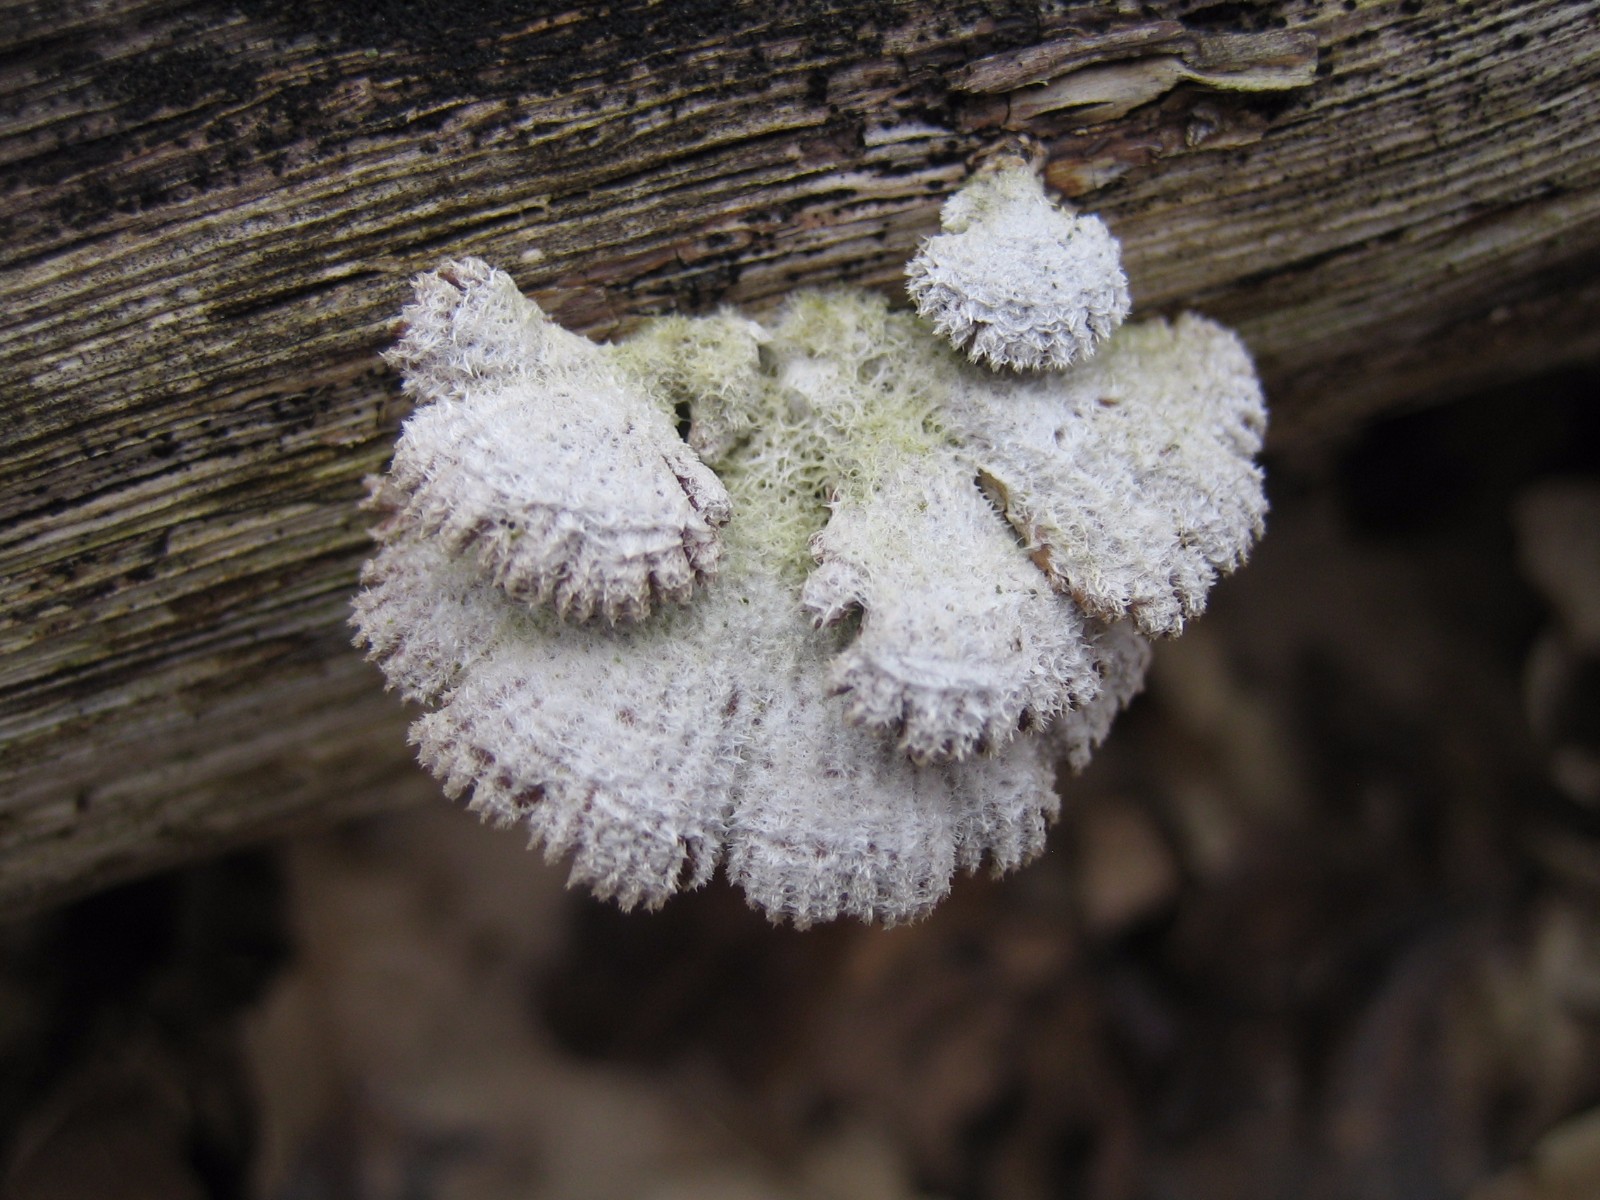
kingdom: Fungi
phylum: Basidiomycota
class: Agaricomycetes
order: Agaricales
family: Schizophyllaceae
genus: Schizophyllum
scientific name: Schizophyllum commune
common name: kløvblad
